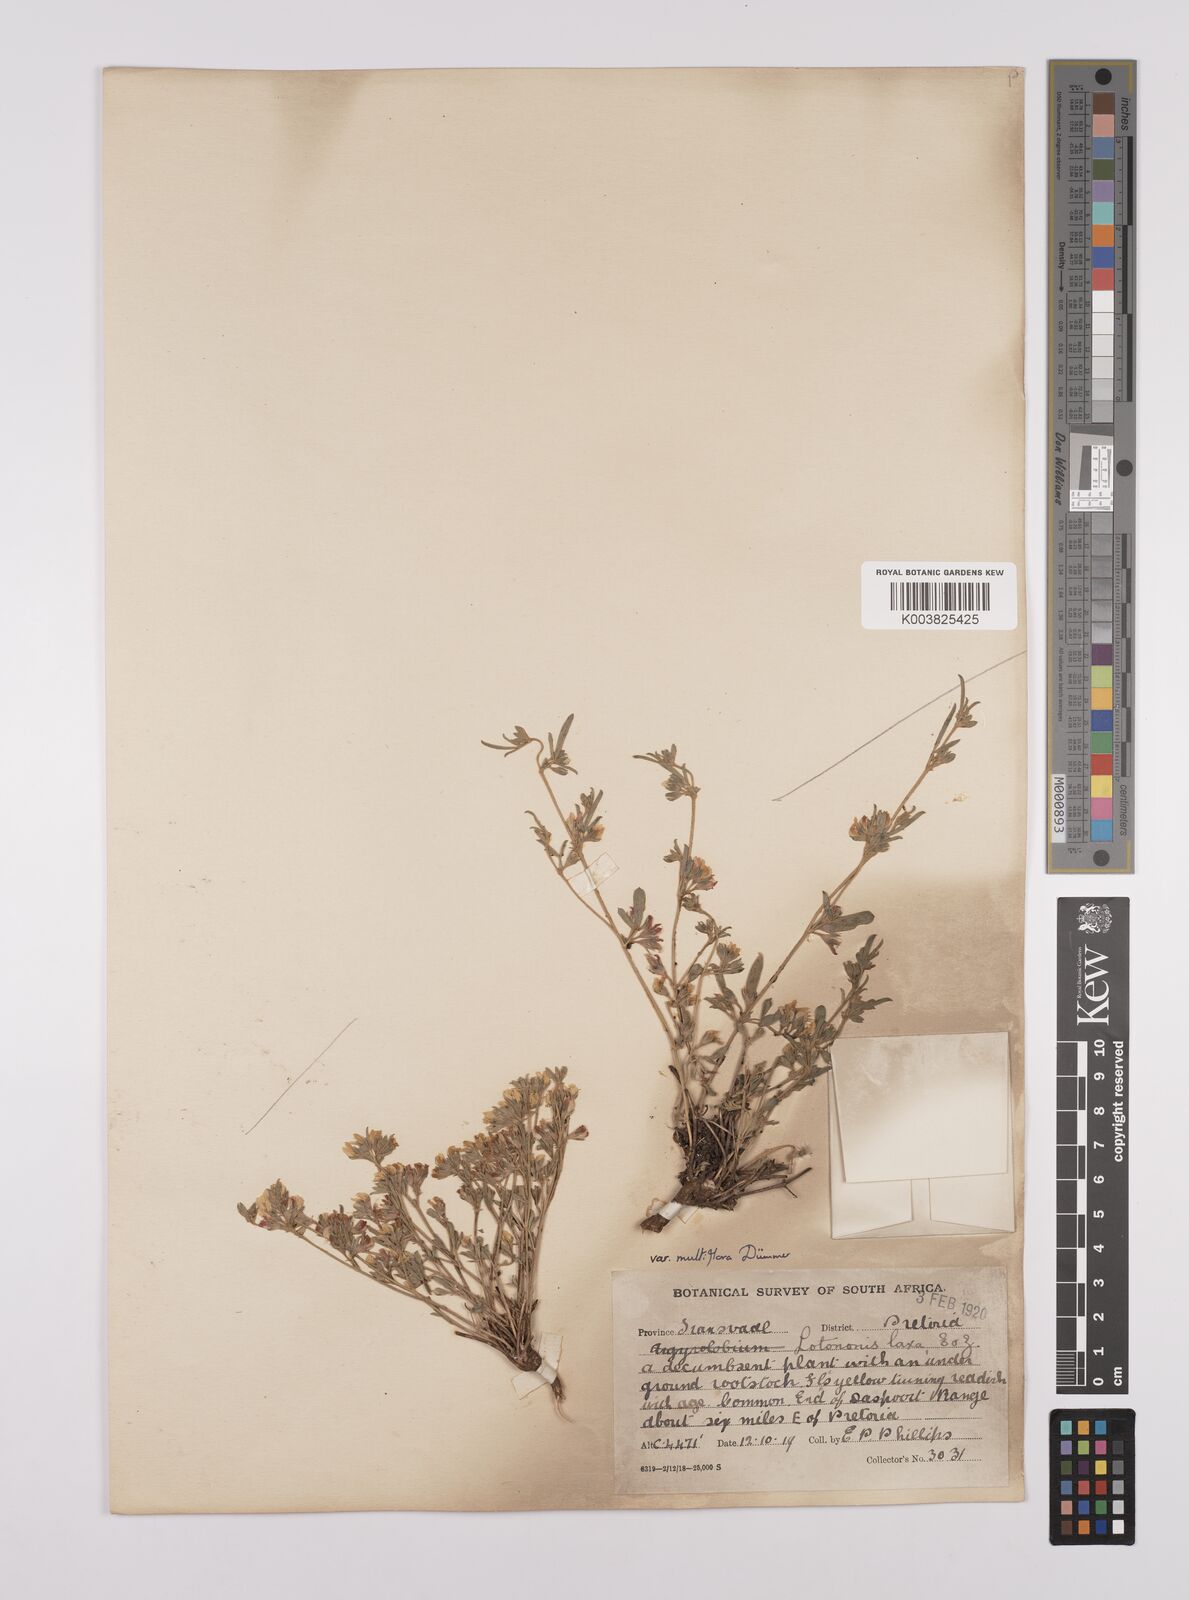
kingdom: Plantae
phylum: Tracheophyta
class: Magnoliopsida
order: Fabales
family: Fabaceae
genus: Lotononis
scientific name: Lotononis laxa
